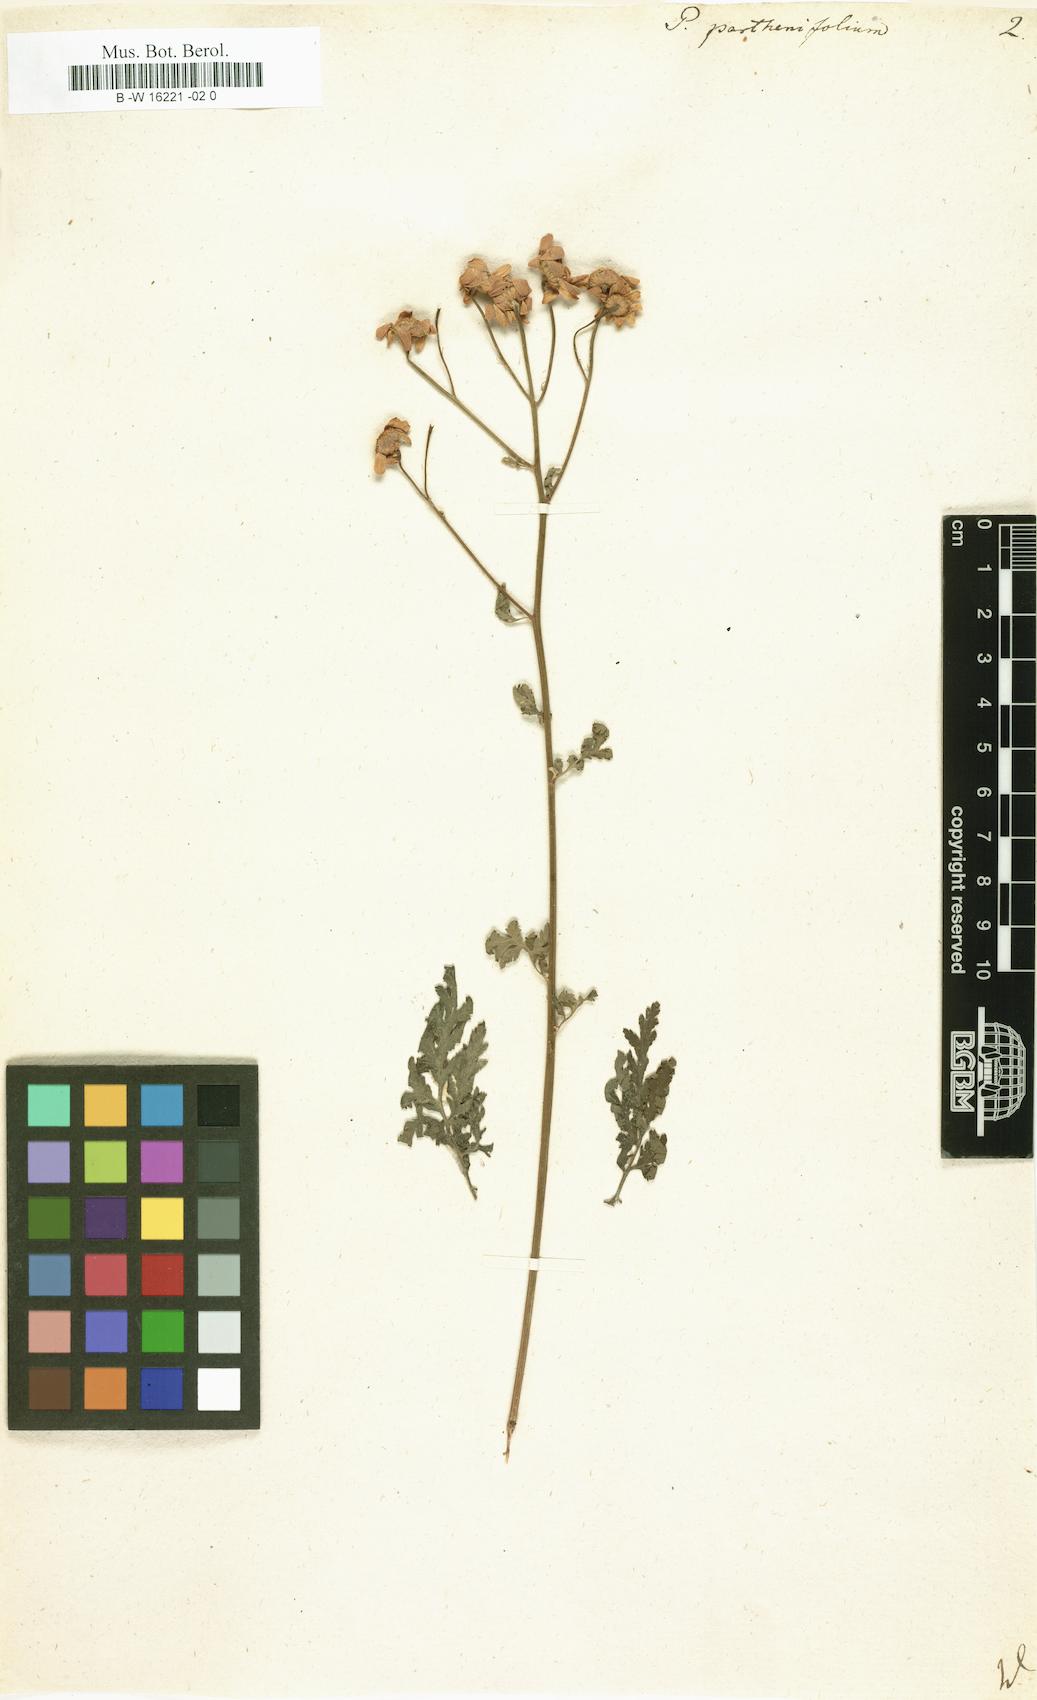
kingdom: Plantae
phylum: Tracheophyta
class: Magnoliopsida
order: Asterales
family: Asteraceae
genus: Tanacetum
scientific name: Tanacetum partheniifolium
